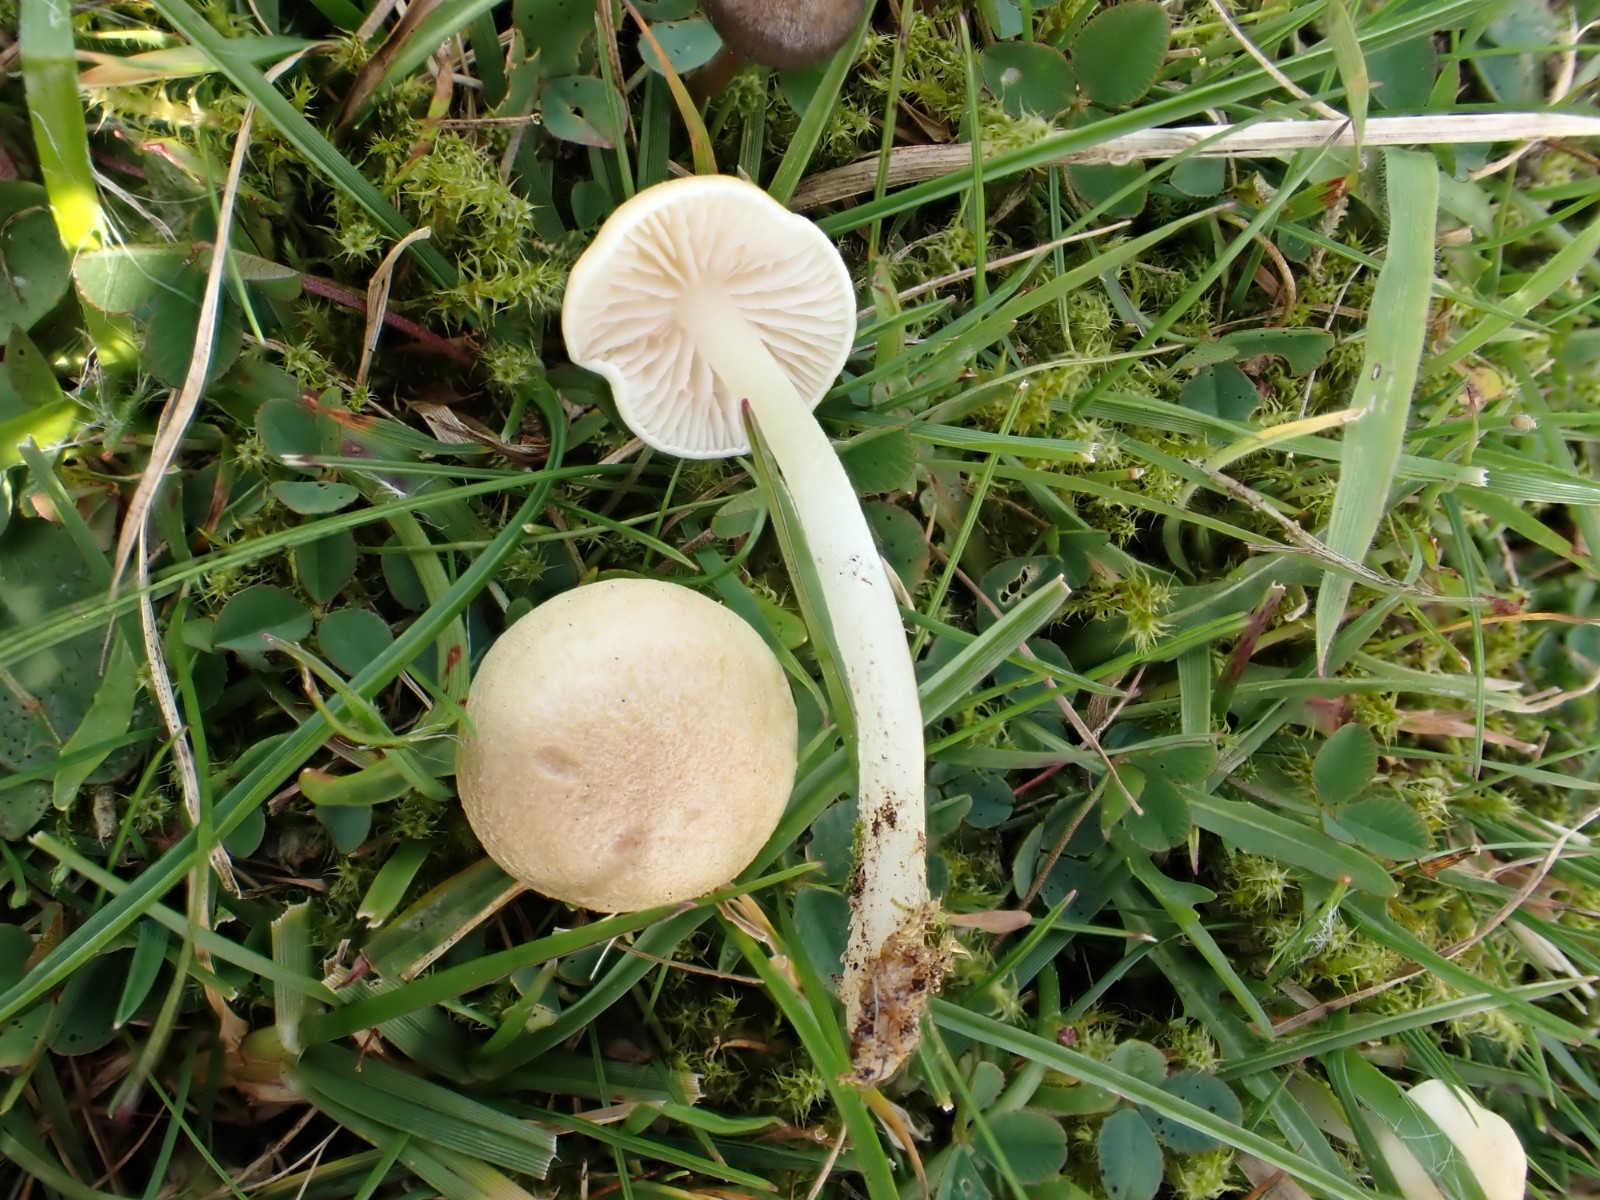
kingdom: Fungi
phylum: Basidiomycota
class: Agaricomycetes
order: Agaricales
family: Entolomataceae
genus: Entoloma
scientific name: Entoloma sericellum
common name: silkehvid rødblad
